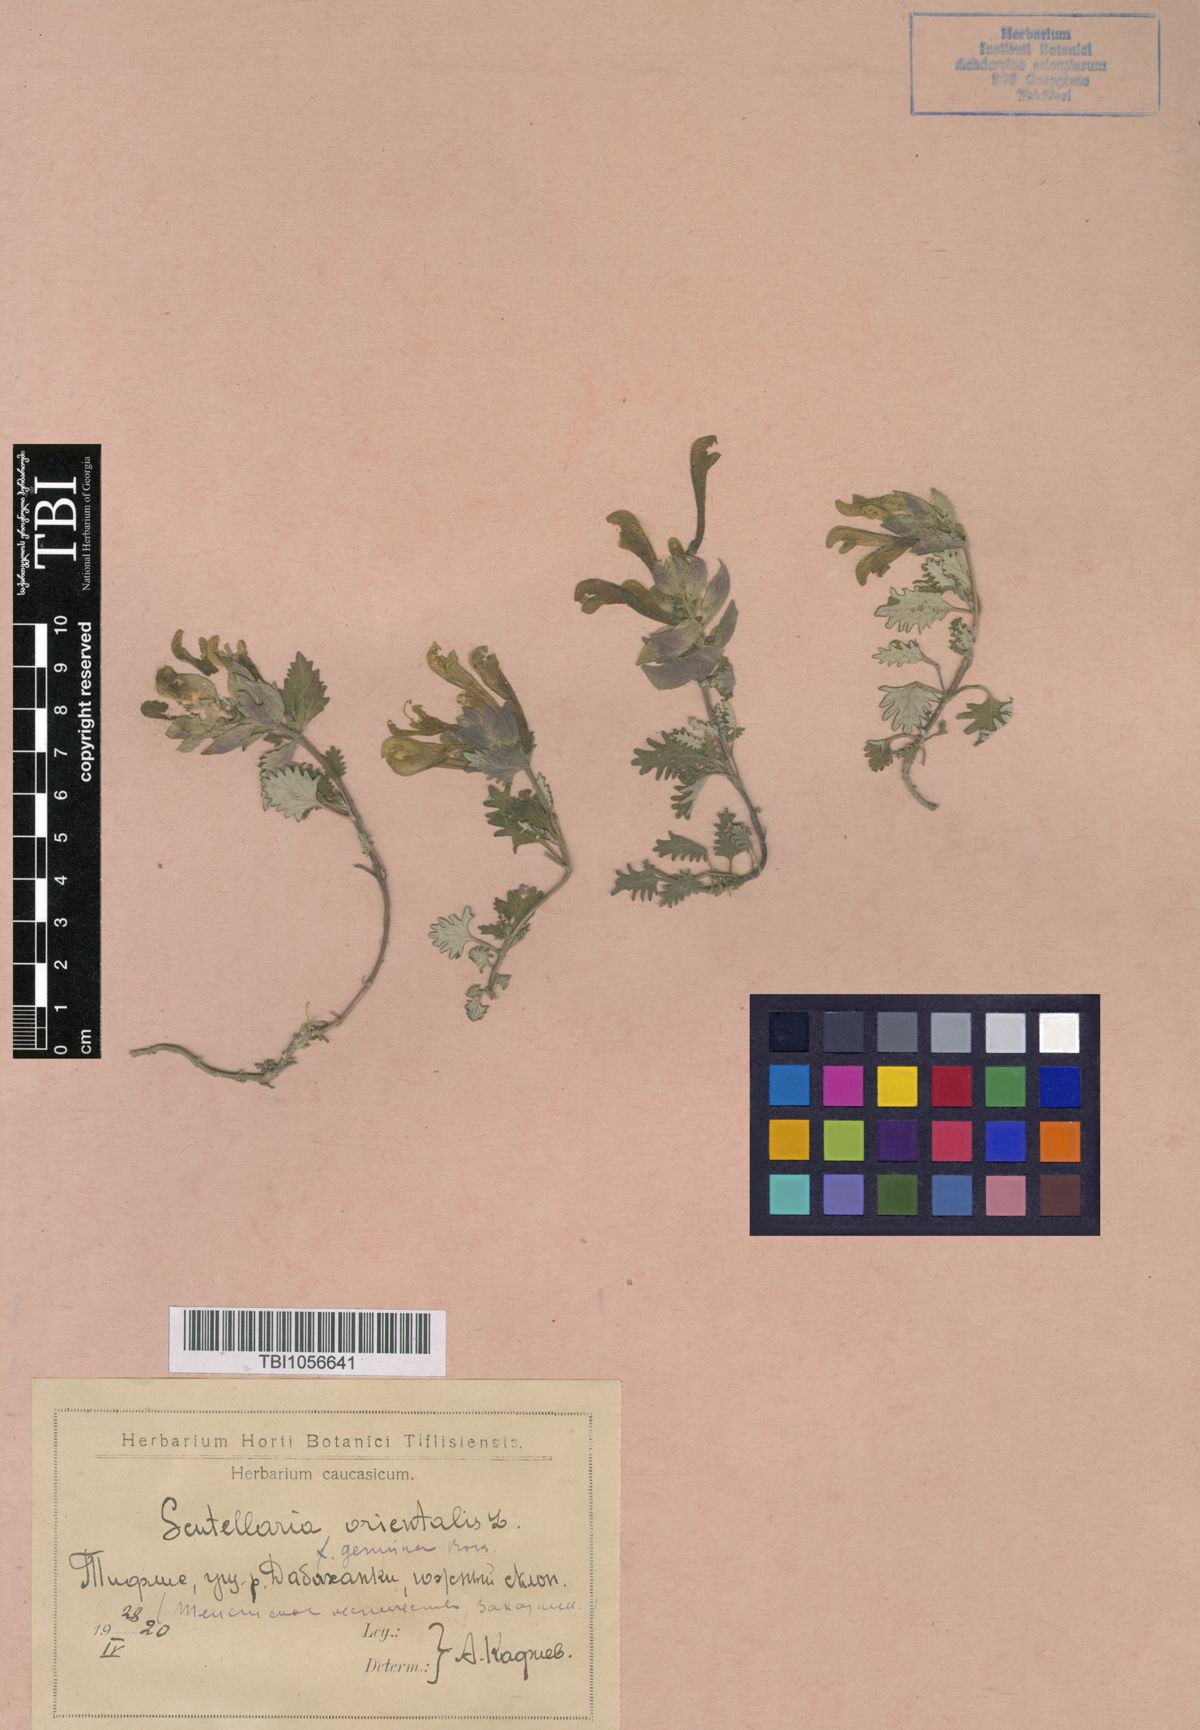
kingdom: Plantae
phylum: Tracheophyta
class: Magnoliopsida
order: Lamiales
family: Lamiaceae
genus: Scutellaria
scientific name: Scutellaria orientalis
